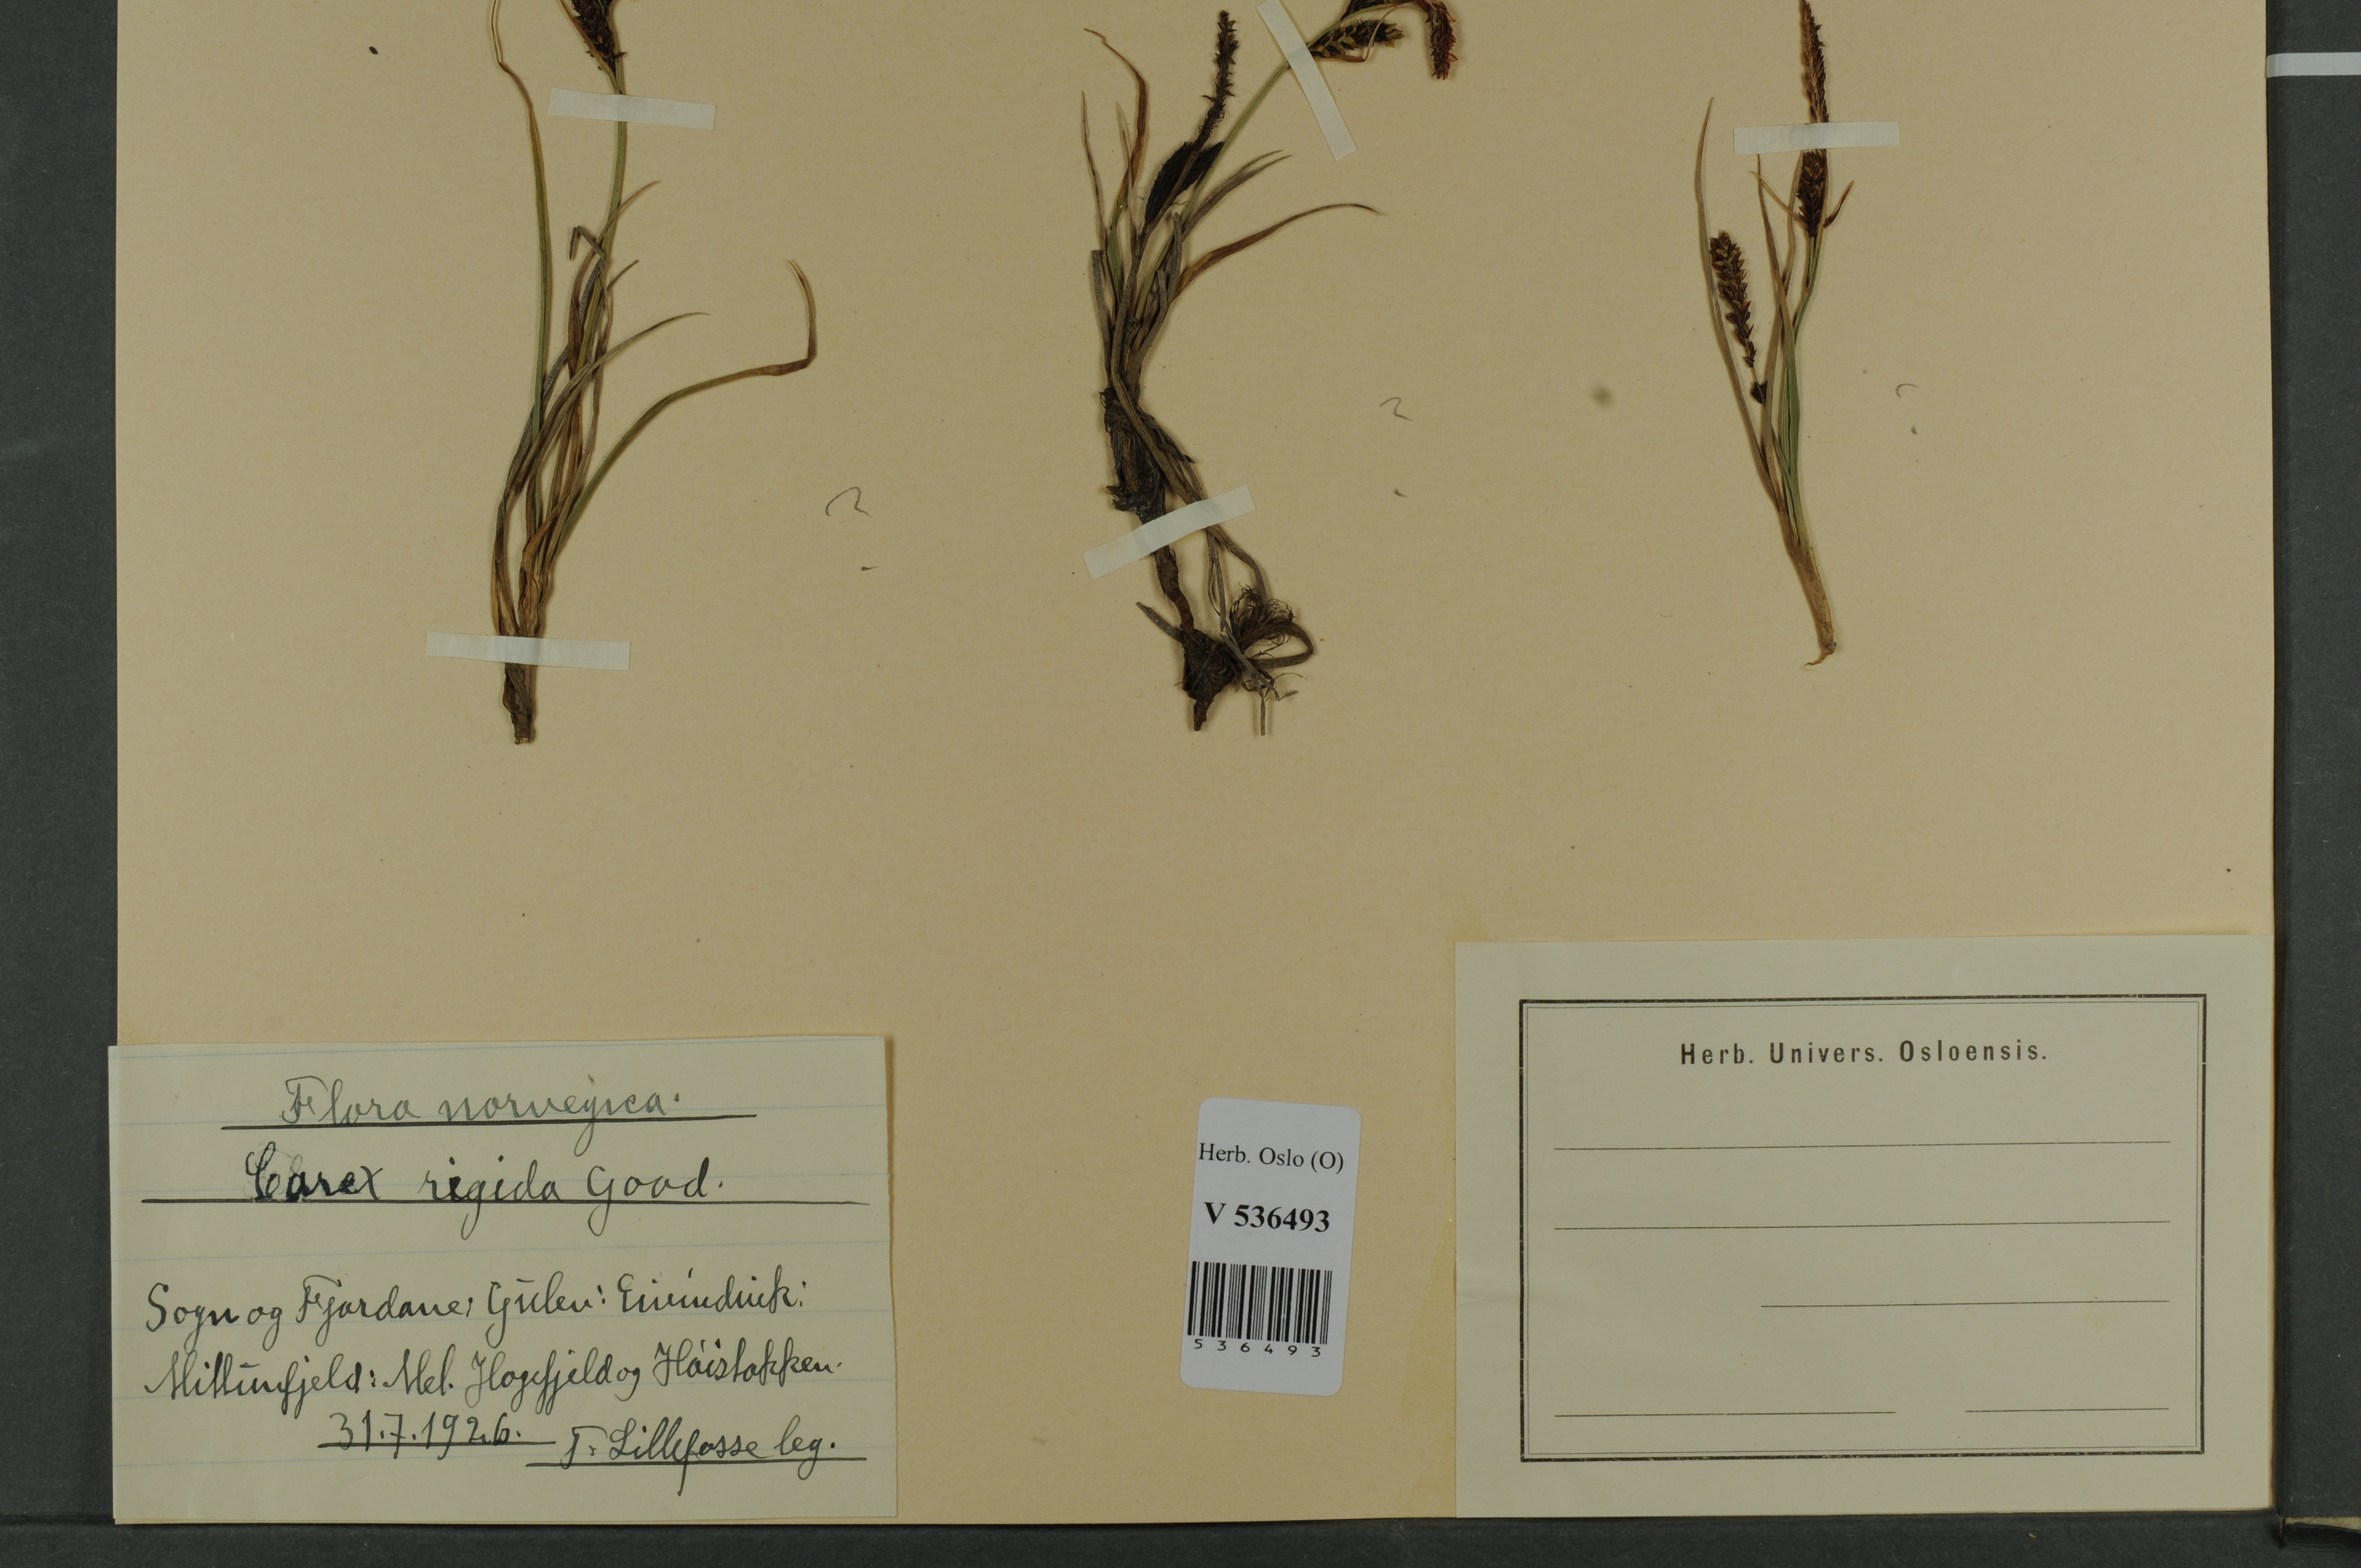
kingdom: Plantae
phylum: Tracheophyta
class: Liliopsida
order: Poales
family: Cyperaceae
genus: Carex
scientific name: Carex dacica
